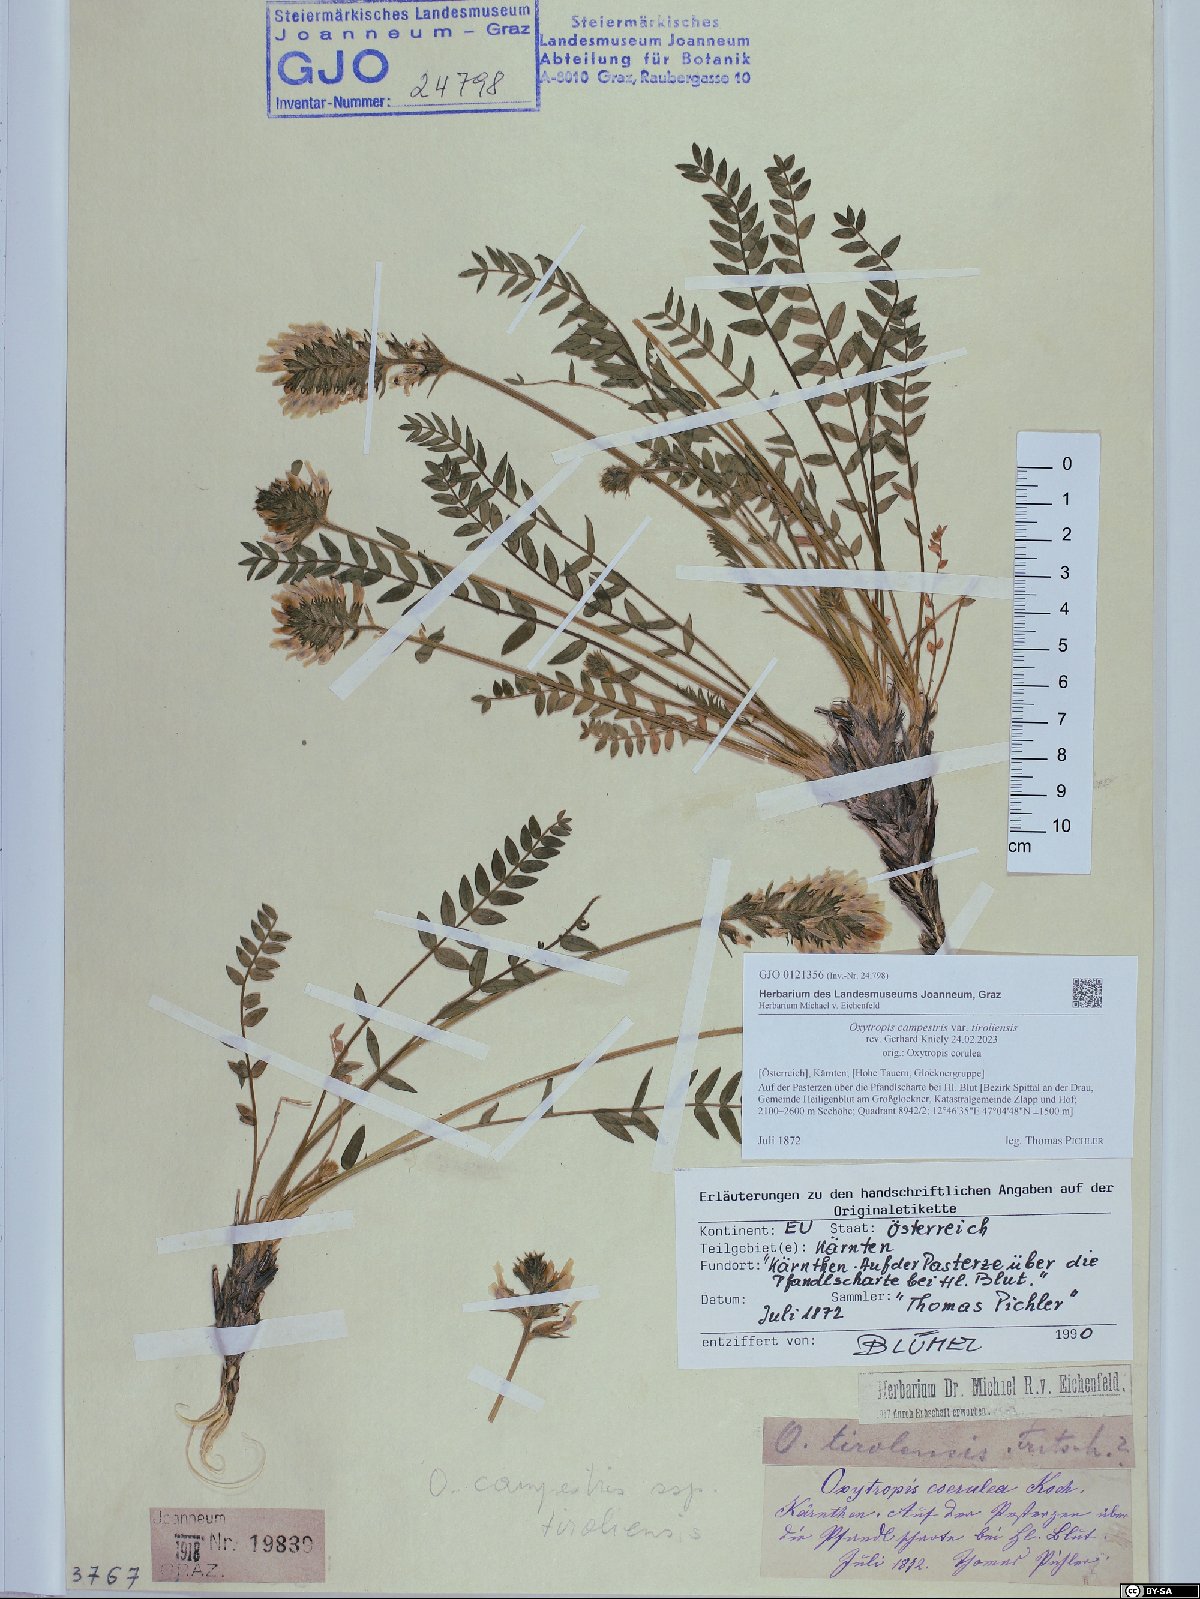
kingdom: Plantae
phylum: Tracheophyta
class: Magnoliopsida
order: Fabales
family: Fabaceae
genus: Oxytropis
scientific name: Oxytropis campestris
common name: Field locoweed
